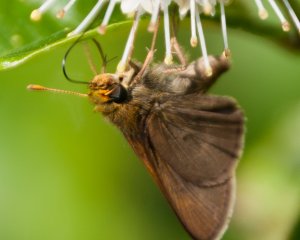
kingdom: Animalia
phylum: Arthropoda
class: Insecta
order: Lepidoptera
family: Hesperiidae
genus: Euphyes
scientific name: Euphyes vestris
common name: Dun Skipper
